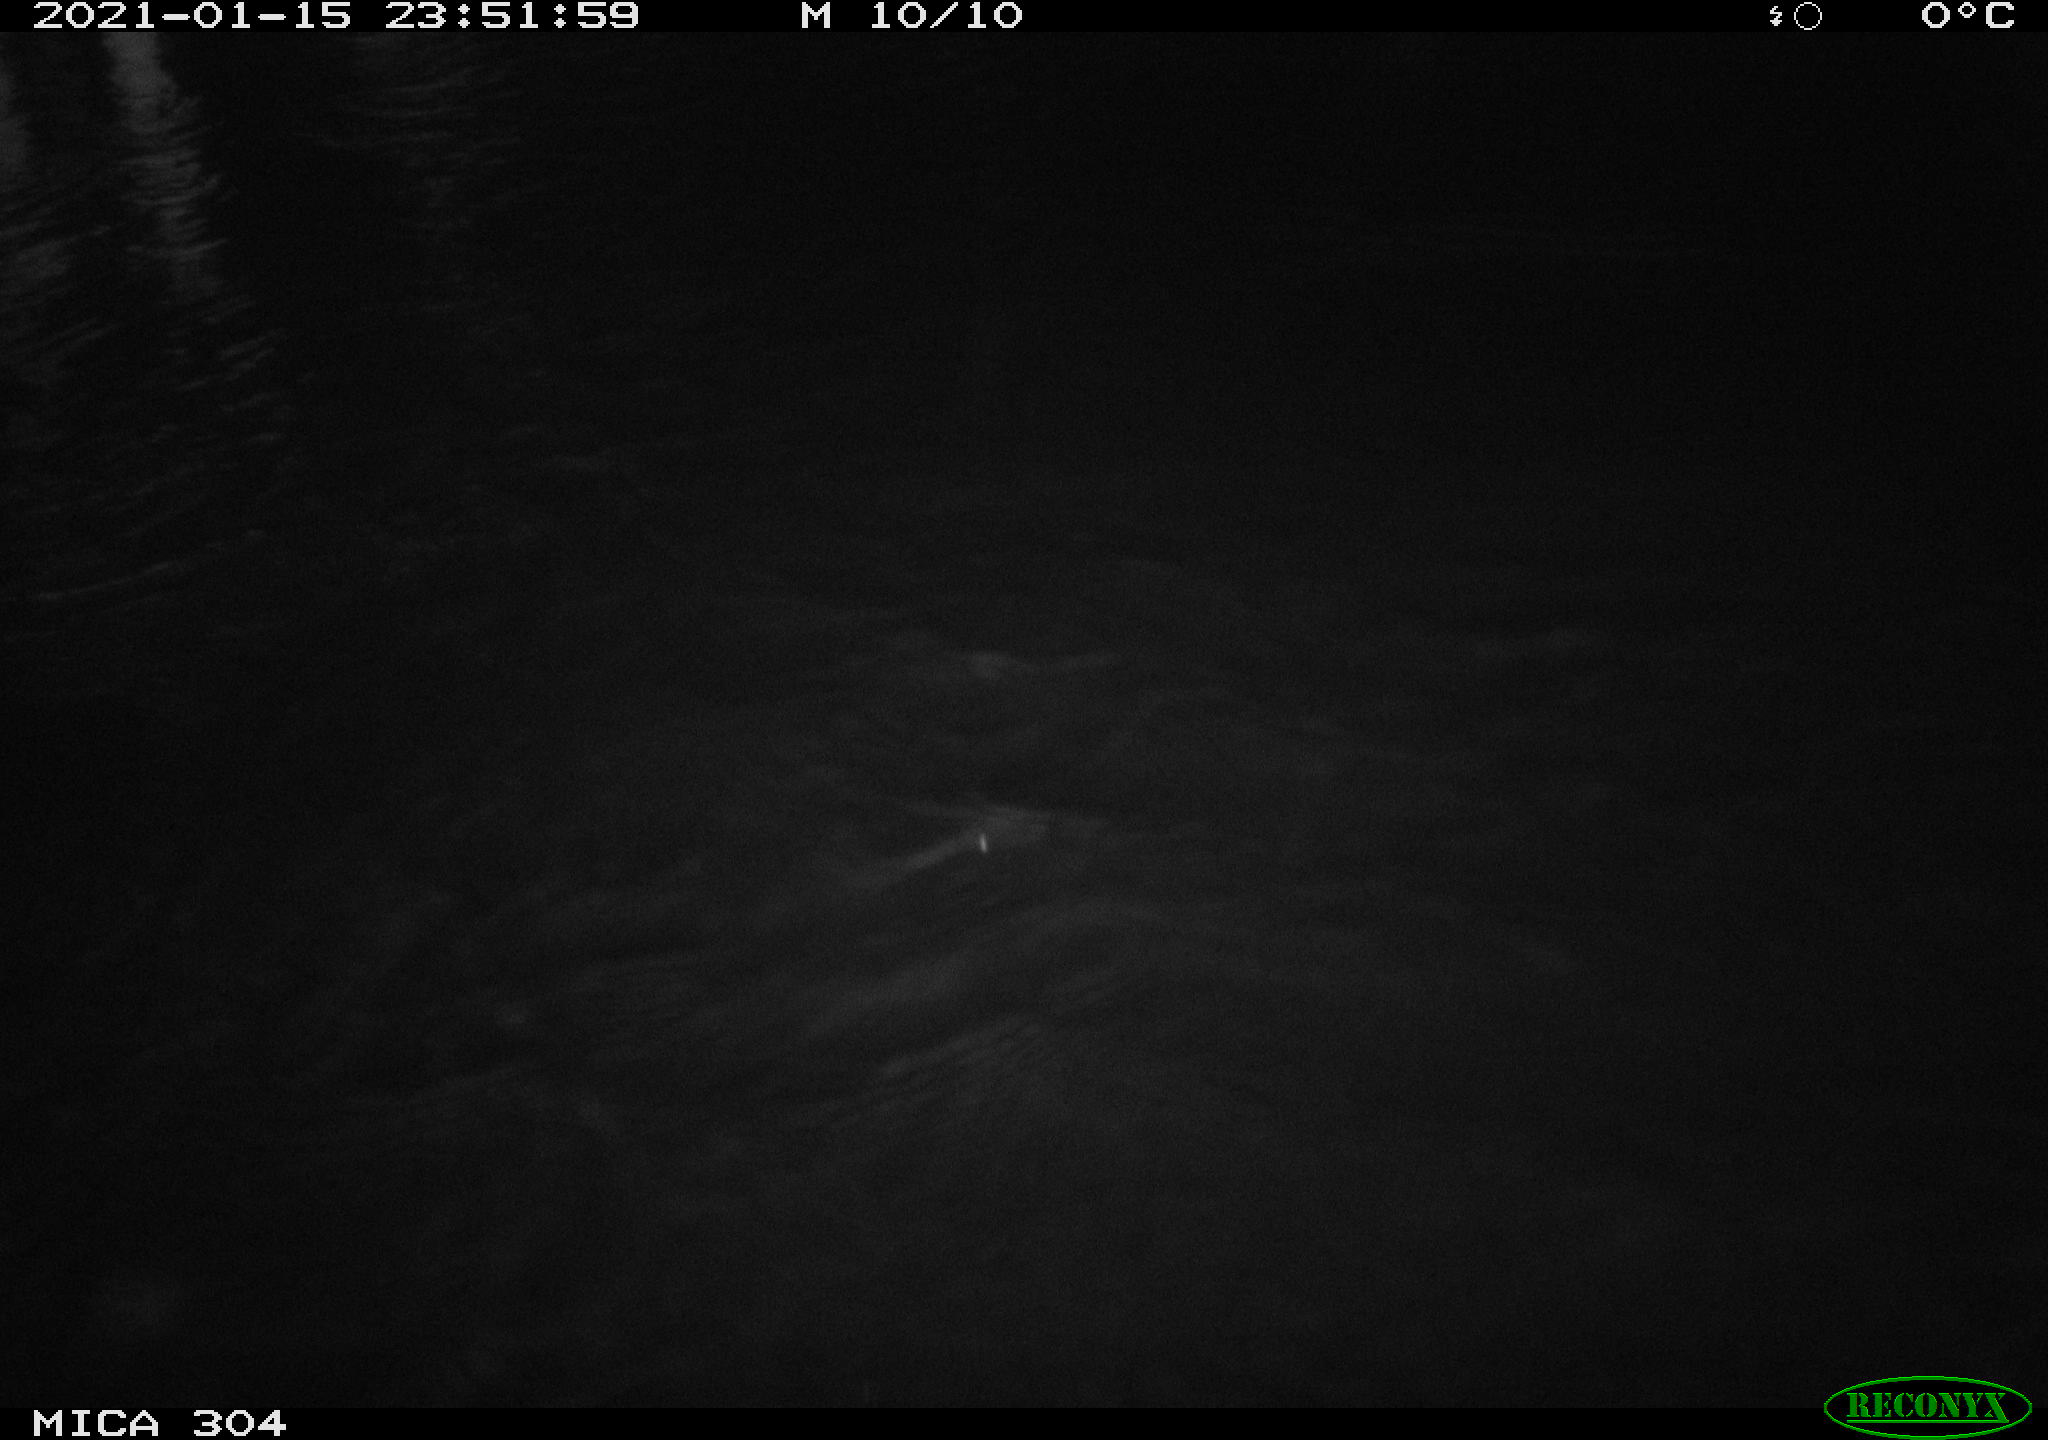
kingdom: Animalia
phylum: Chordata
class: Aves
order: Anseriformes
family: Anatidae
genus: Anas
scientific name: Anas platyrhynchos
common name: Mallard
